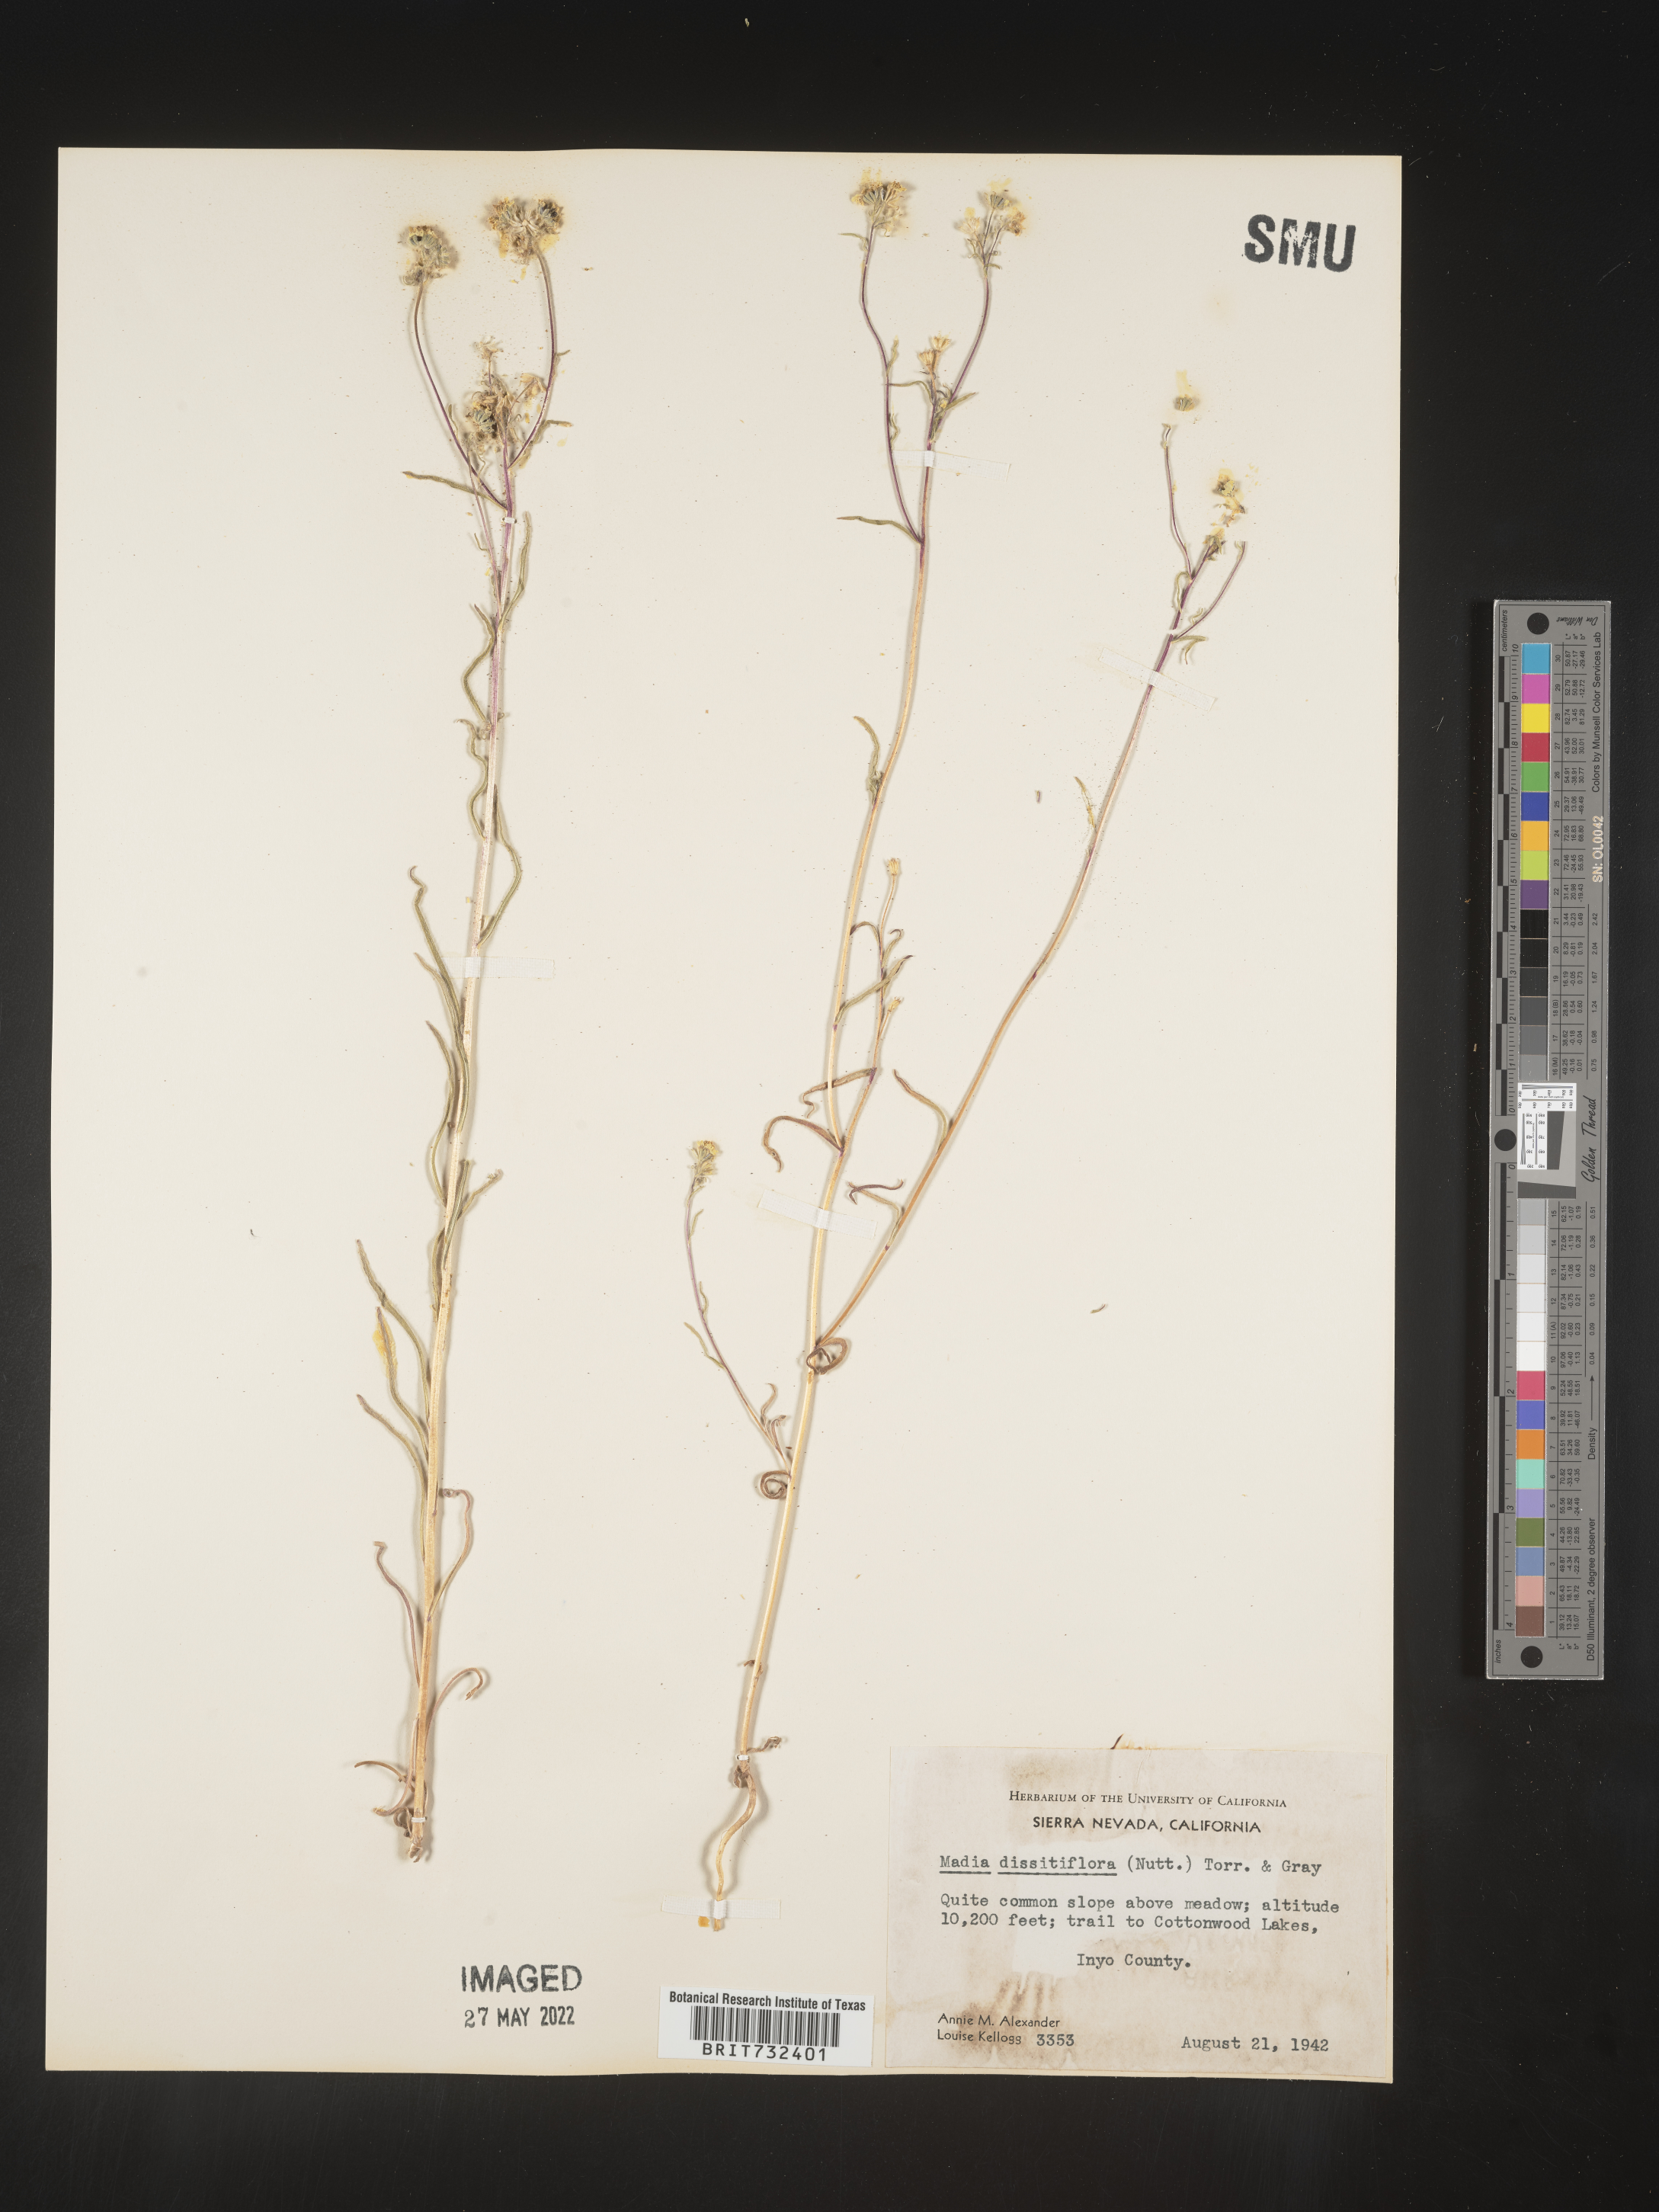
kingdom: Plantae
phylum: Tracheophyta
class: Magnoliopsida
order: Asterales
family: Asteraceae
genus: Madia
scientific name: Madia gracilis
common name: Grassy tarweed
